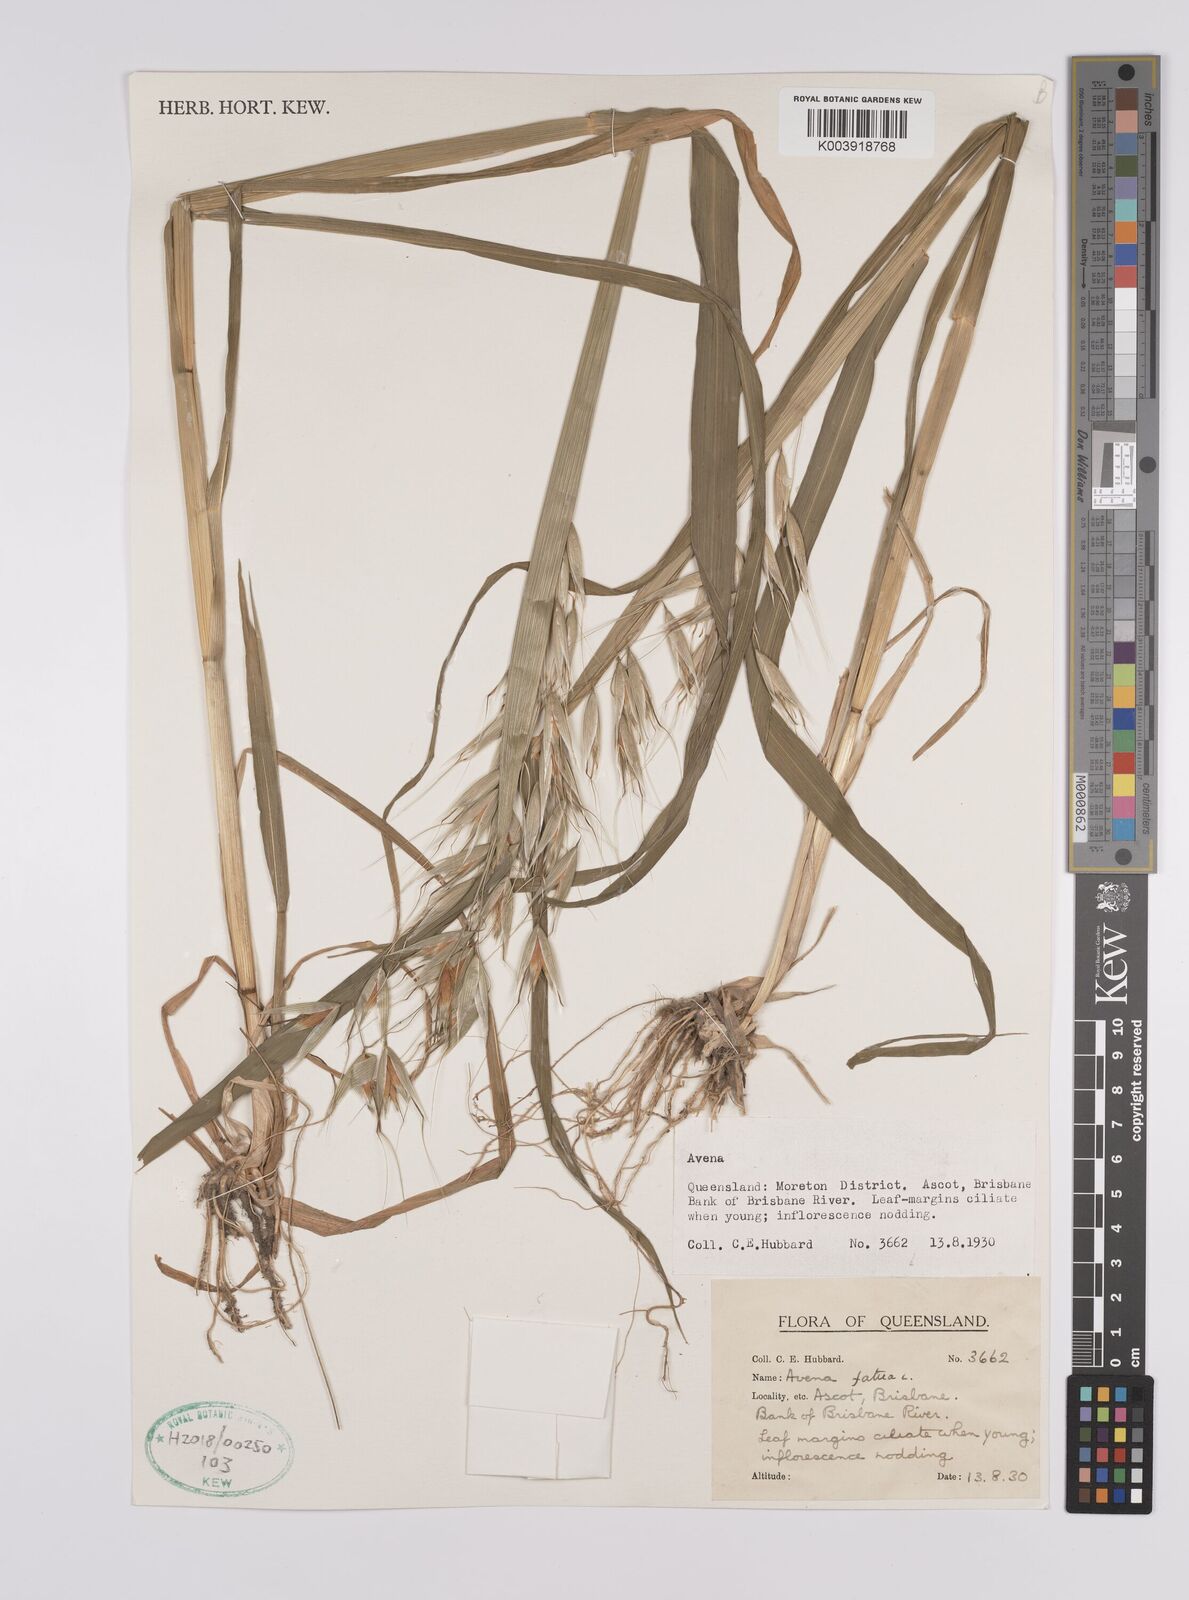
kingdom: Plantae
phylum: Tracheophyta
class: Liliopsida
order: Poales
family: Poaceae
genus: Avena
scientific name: Avena fatua
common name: Wild oat
